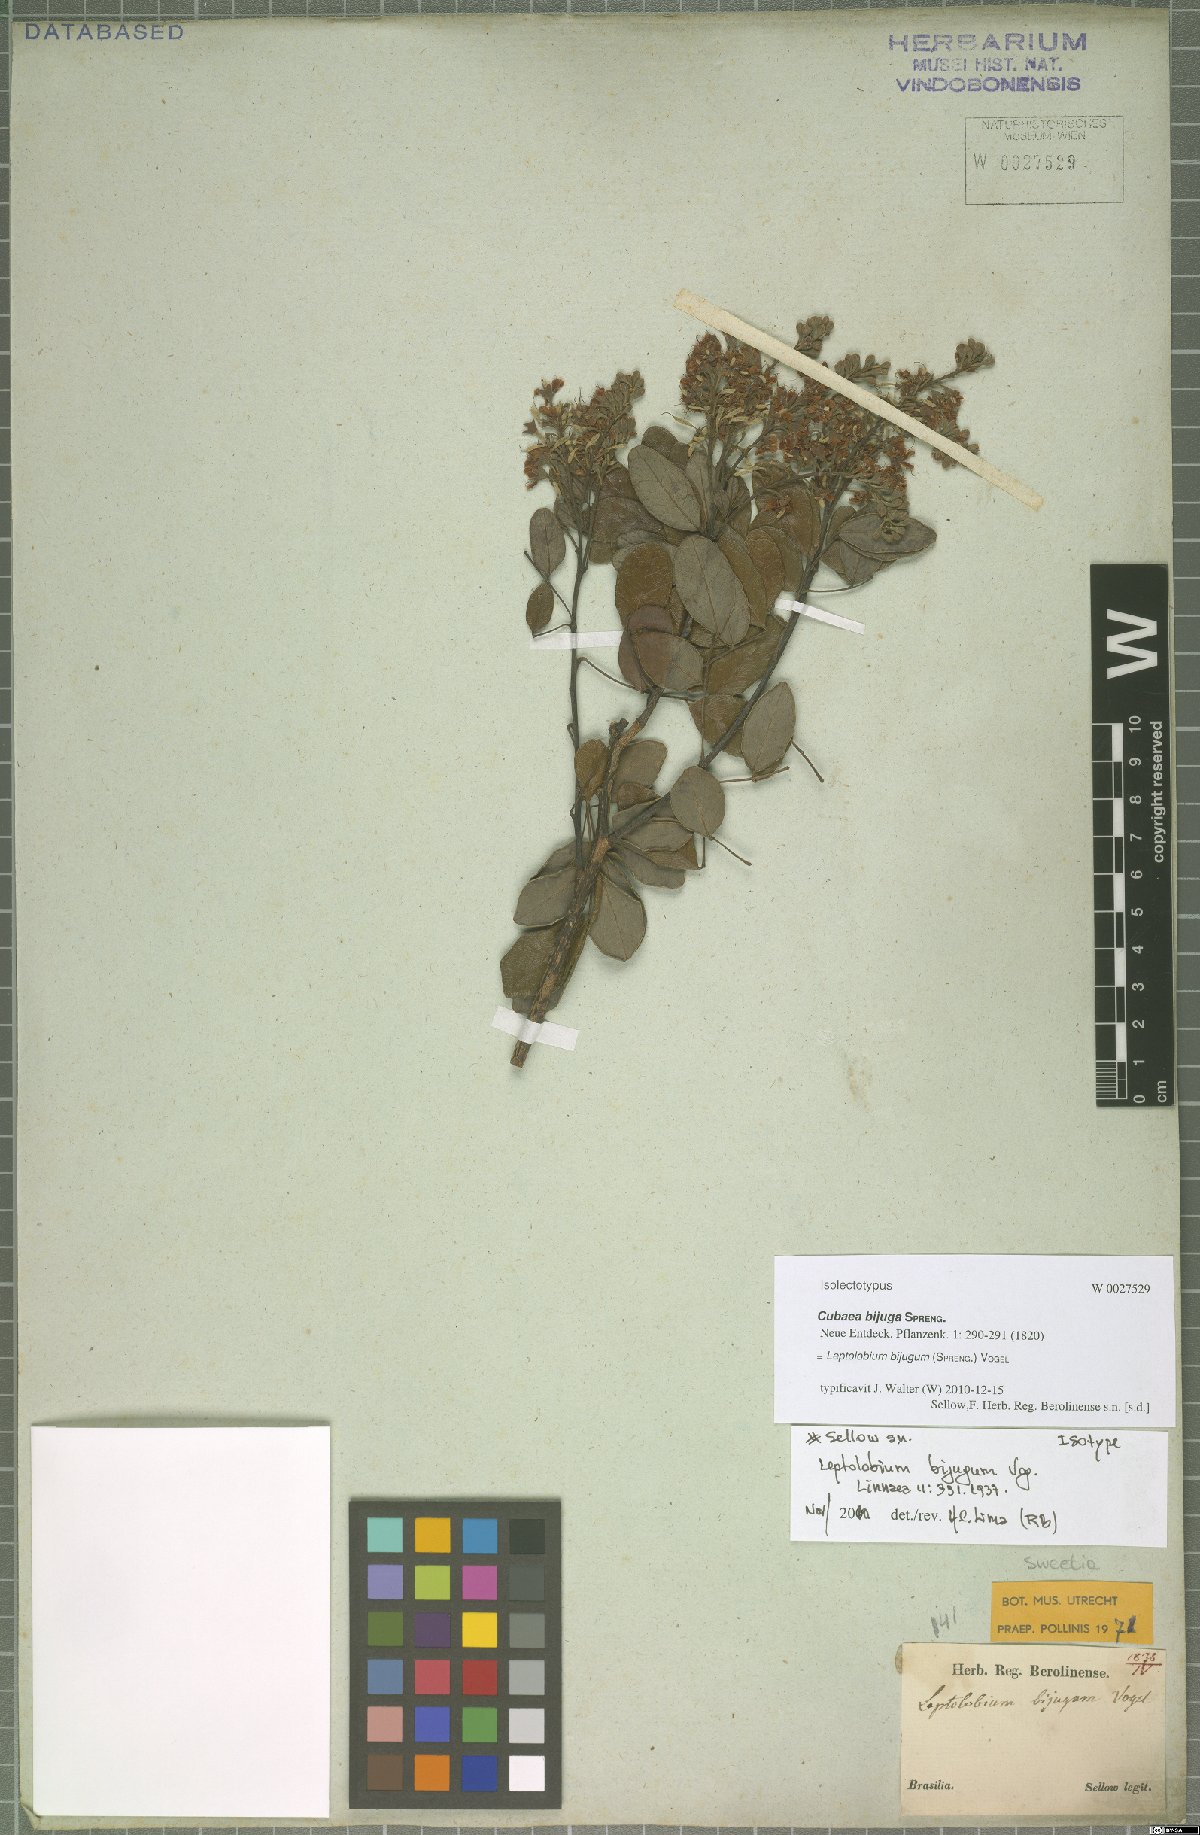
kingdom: Plantae
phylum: Tracheophyta
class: Magnoliopsida
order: Fabales
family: Fabaceae
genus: Leptolobium
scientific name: Leptolobium bijugum
